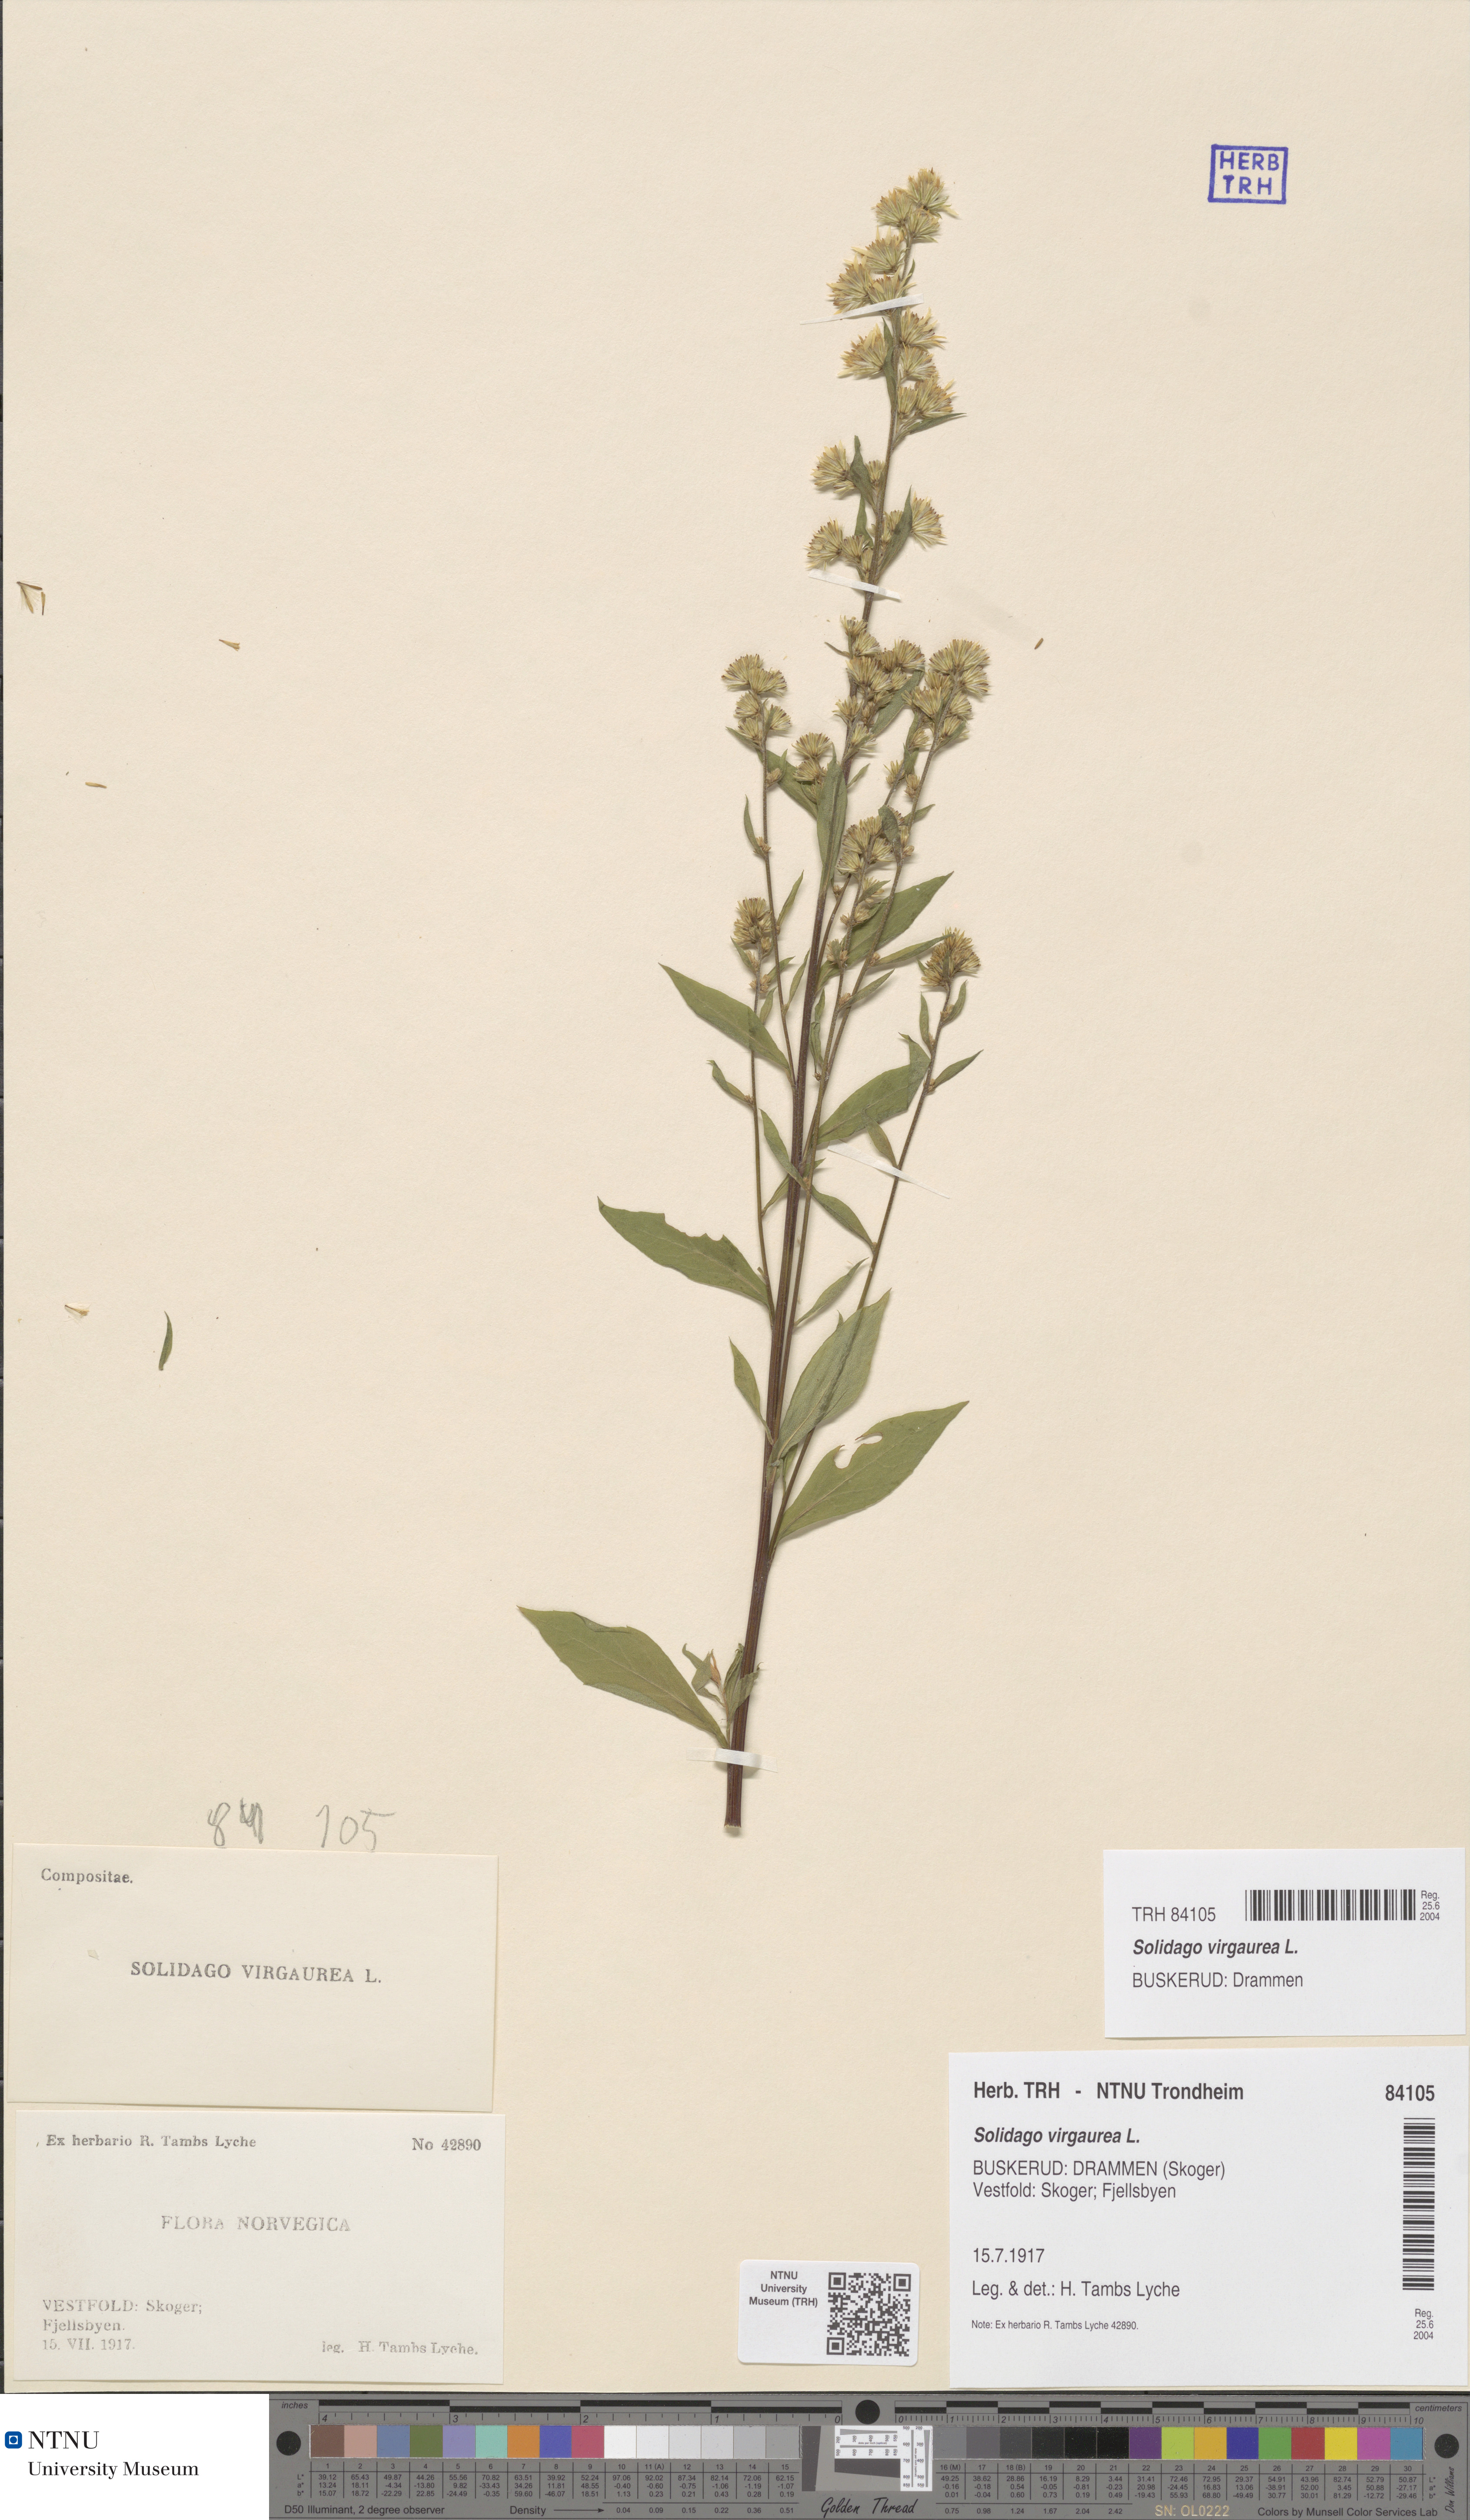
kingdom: Plantae
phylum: Tracheophyta
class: Magnoliopsida
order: Asterales
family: Asteraceae
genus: Solidago
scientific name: Solidago virgaurea
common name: Goldenrod
